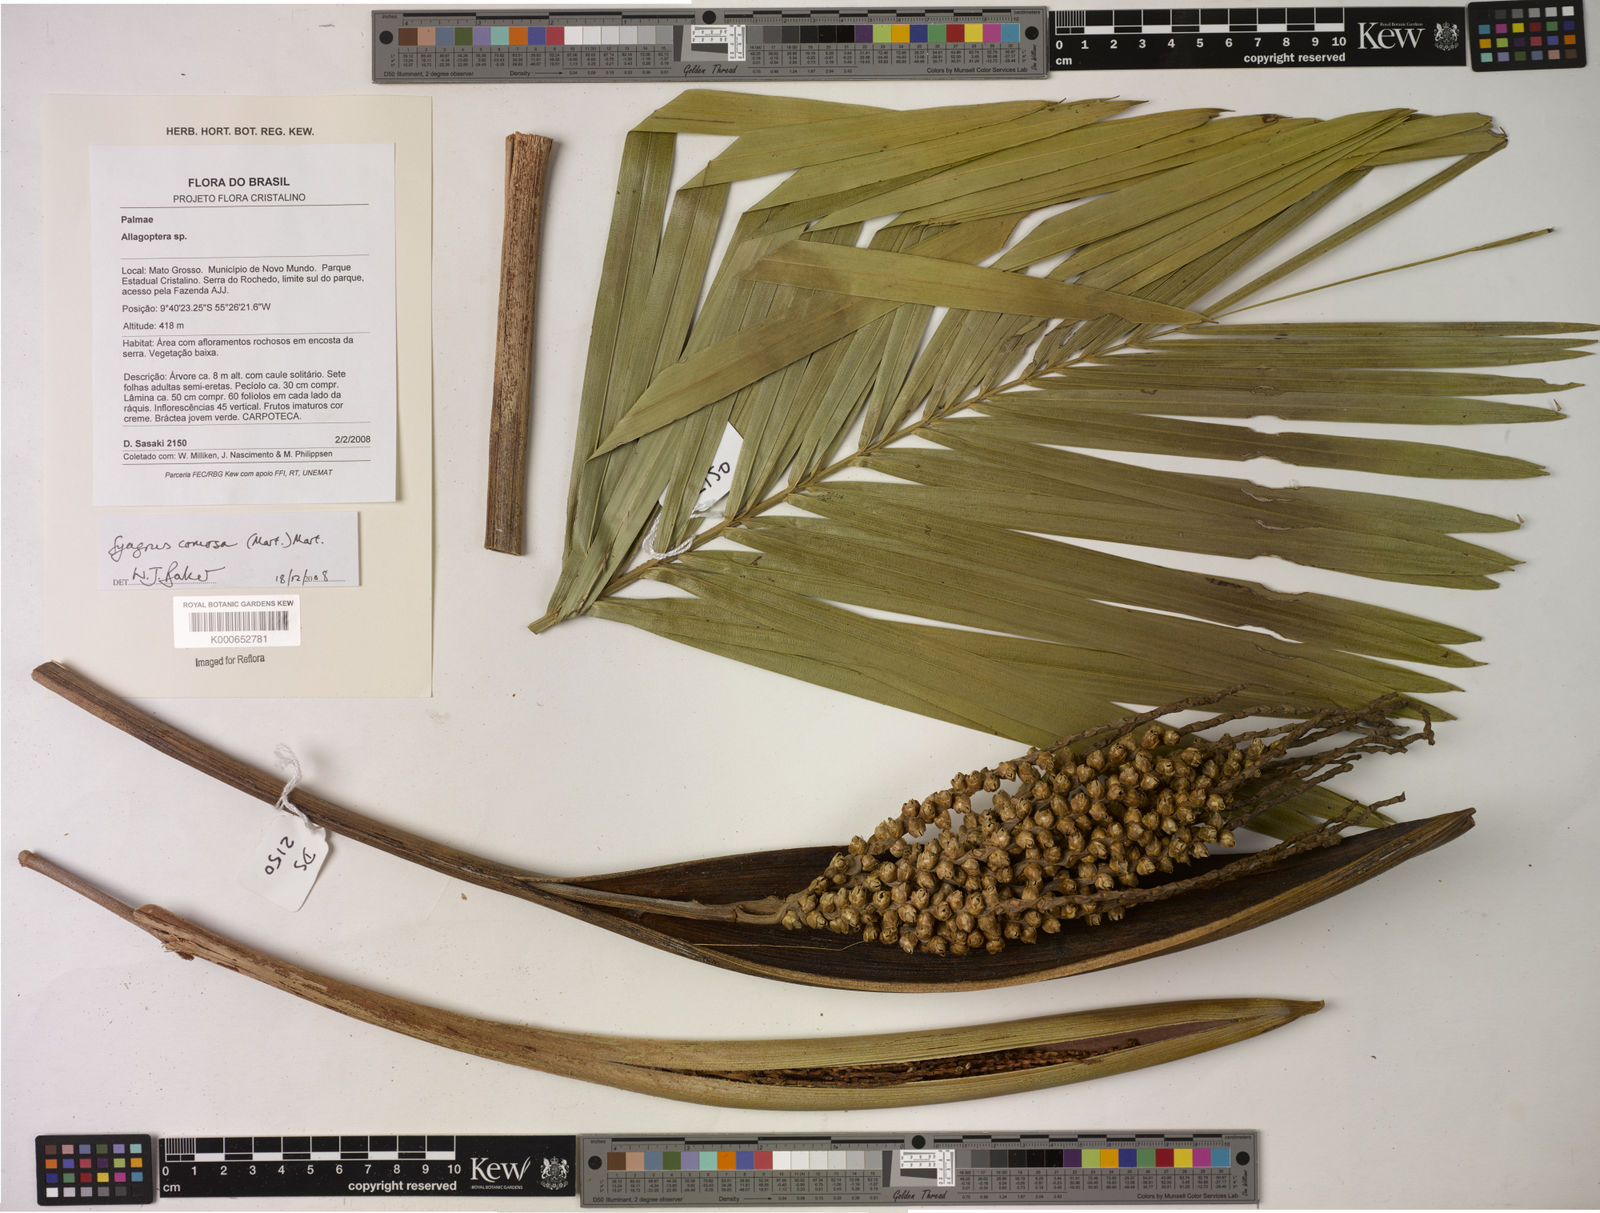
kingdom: Plantae
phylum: Tracheophyta
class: Liliopsida
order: Arecales
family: Arecaceae
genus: Syagrus
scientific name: Syagrus comosa
